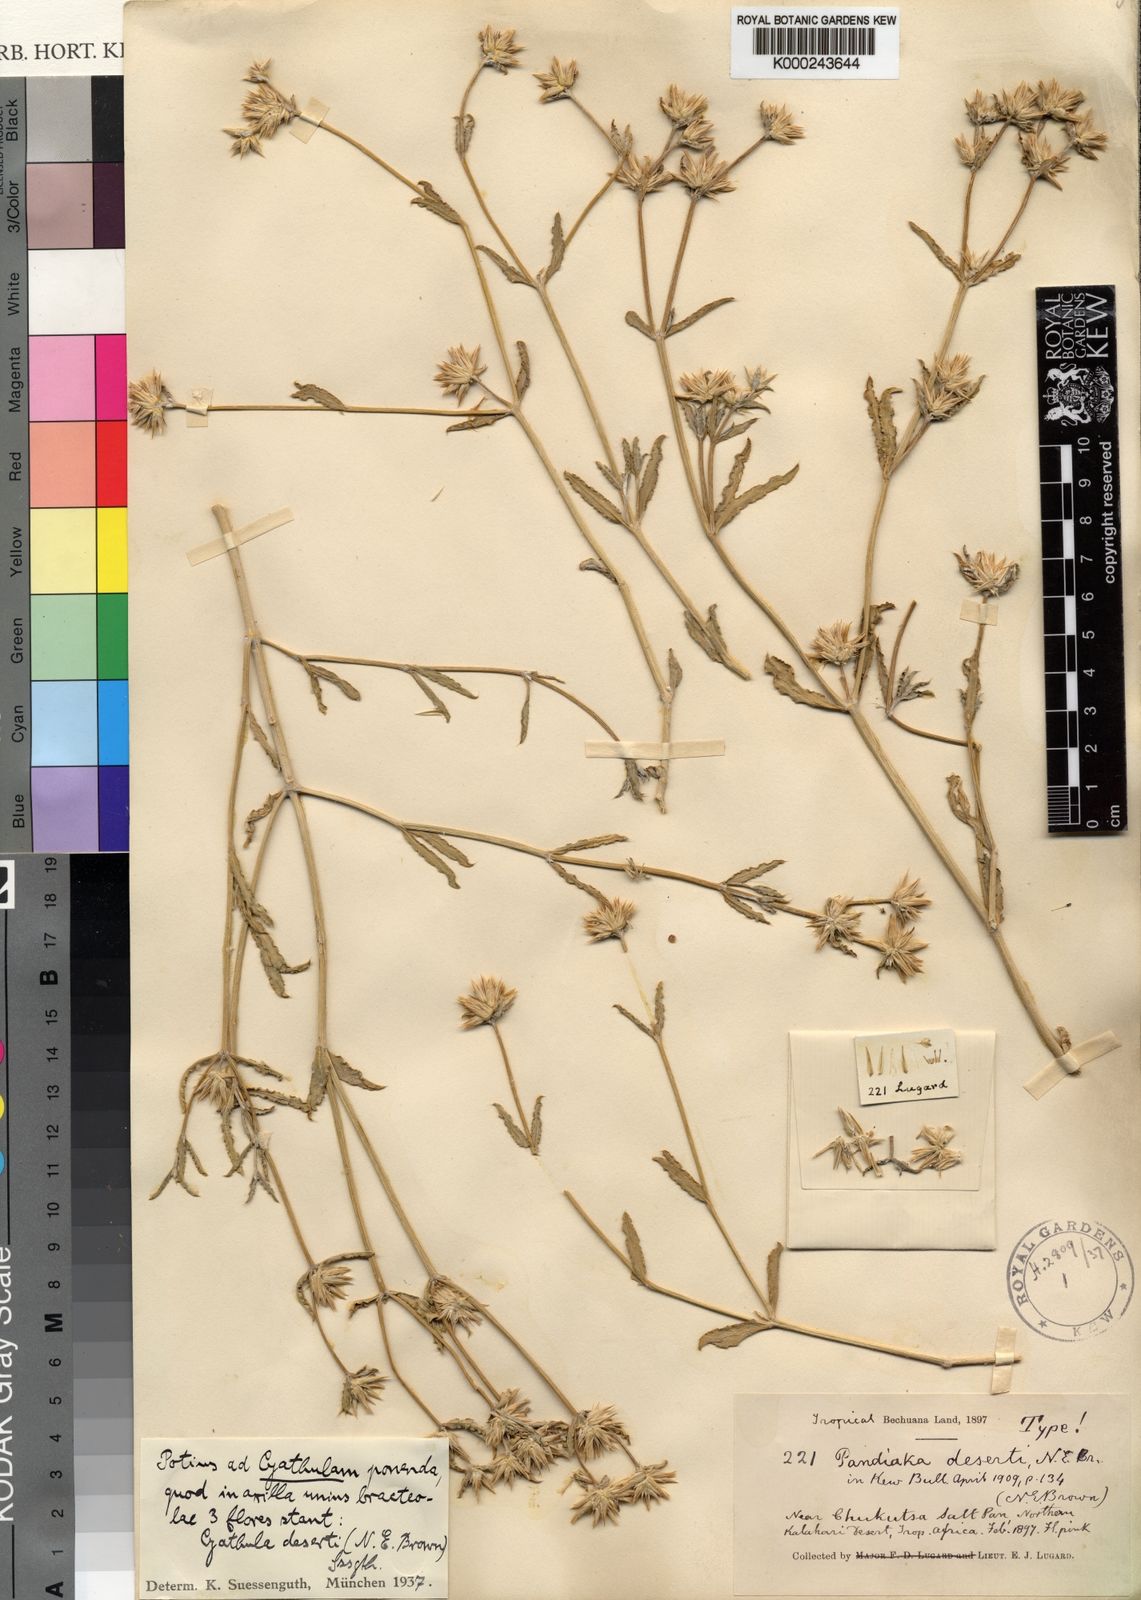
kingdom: Plantae
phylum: Tracheophyta
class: Magnoliopsida
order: Caryophyllales
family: Amaranthaceae
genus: Cyathula
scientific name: Cyathula lanceolata
